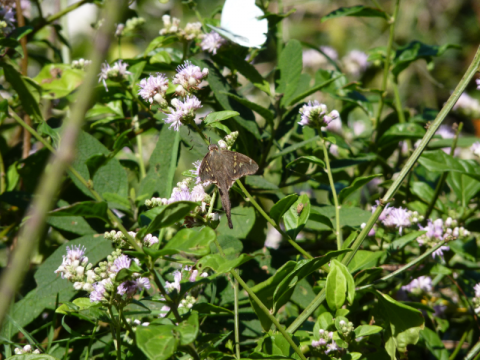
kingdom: Animalia
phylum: Arthropoda
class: Insecta
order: Lepidoptera
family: Hesperiidae
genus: Chioides
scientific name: Chioides catillus
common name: Blurry-striped Longtail
